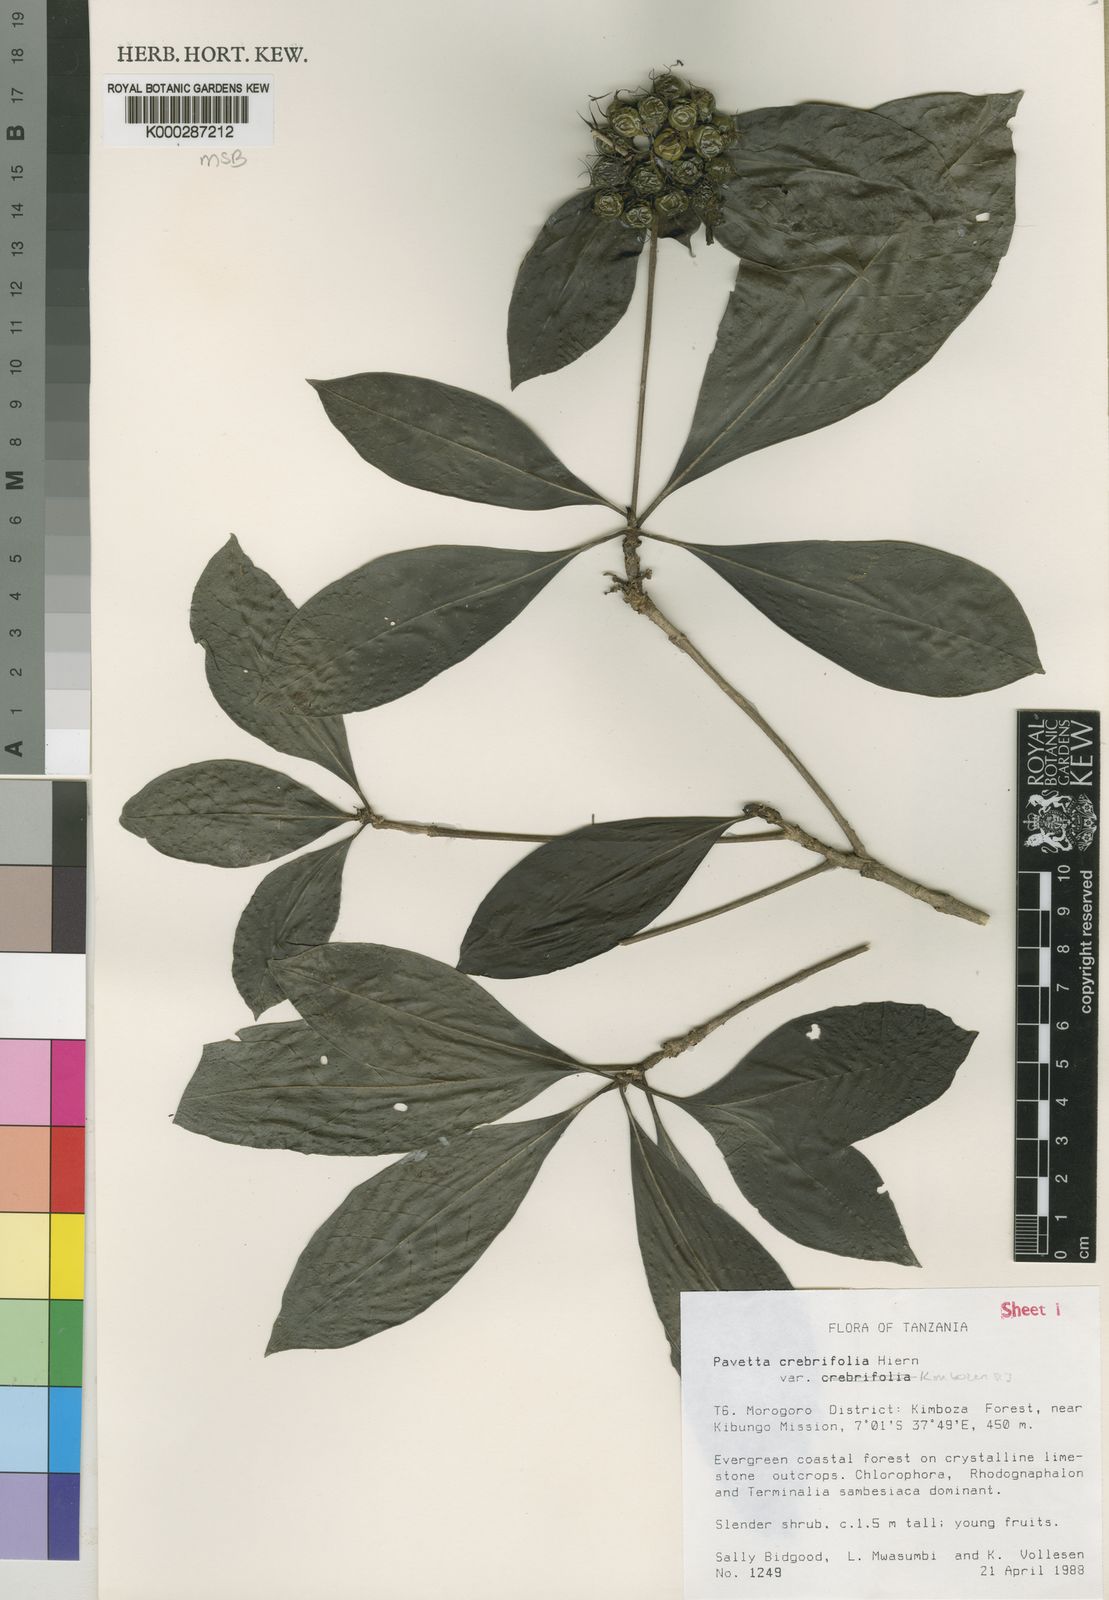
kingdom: Plantae
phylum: Tracheophyta
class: Magnoliopsida
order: Gentianales
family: Rubiaceae
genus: Pavetta
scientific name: Pavetta crebrifolia
